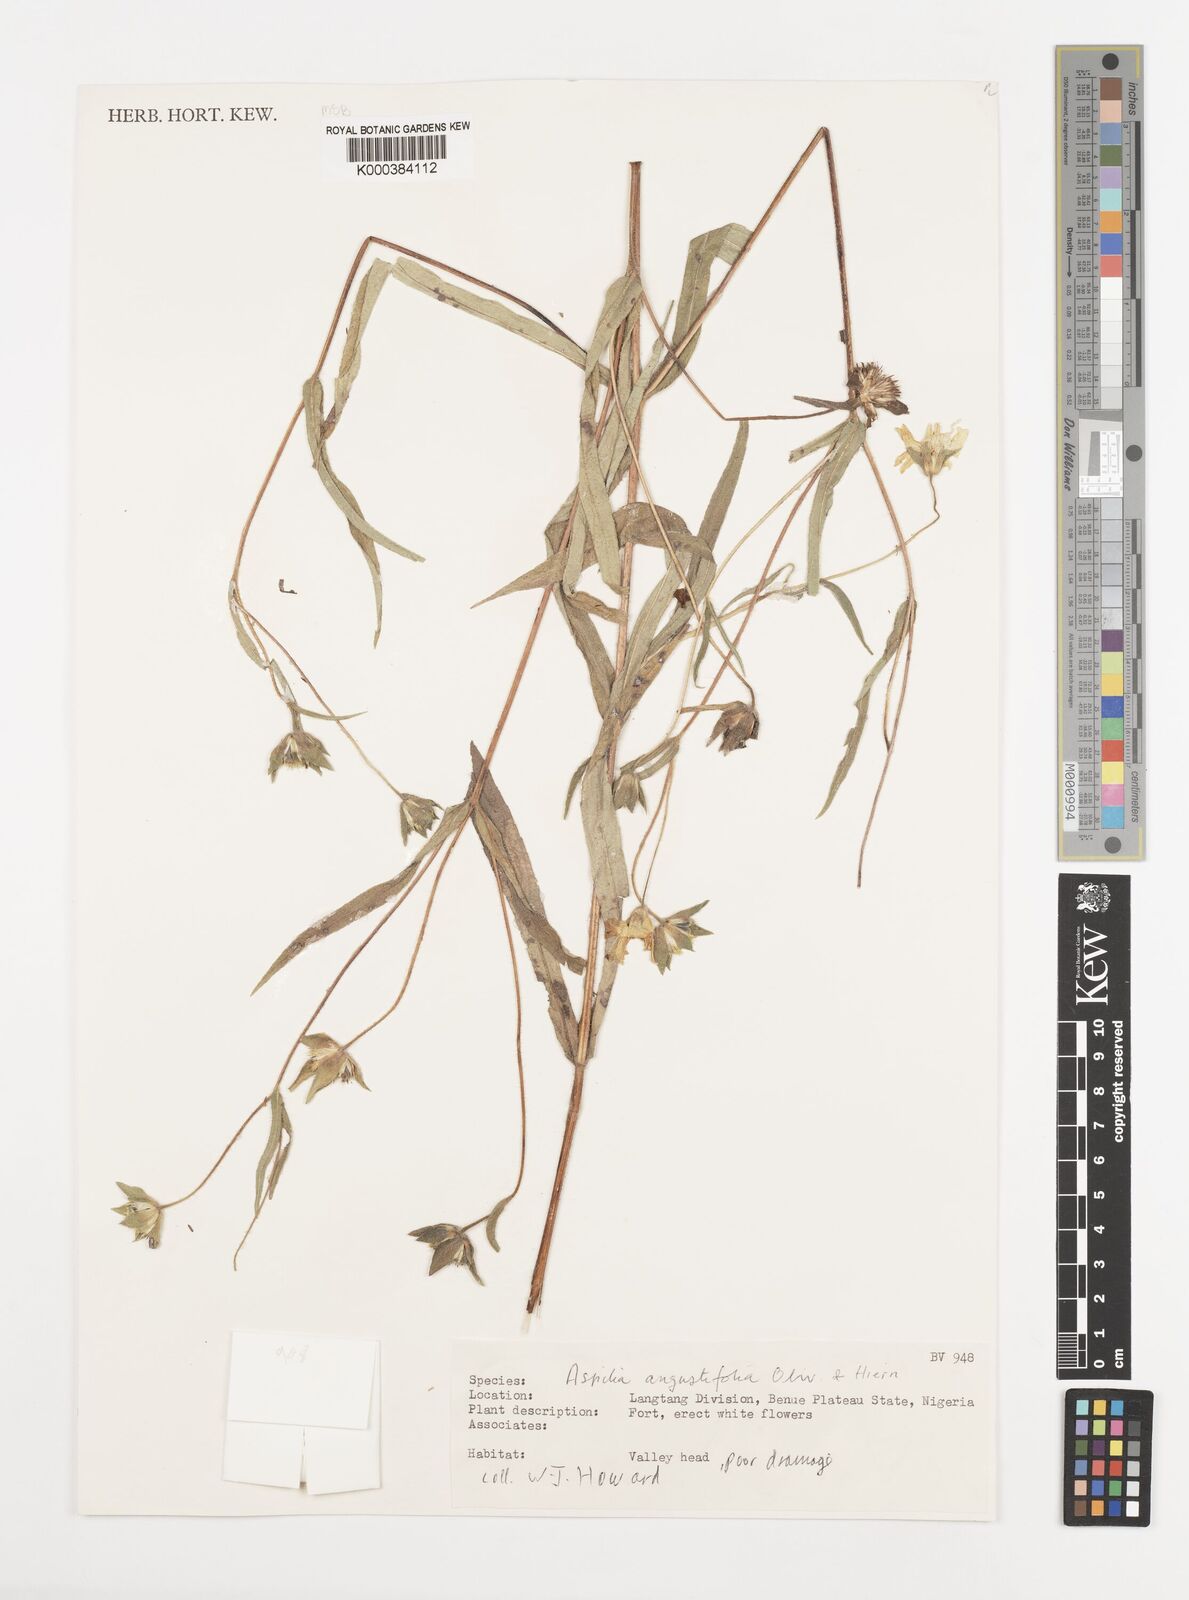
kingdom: Plantae
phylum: Tracheophyta
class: Magnoliopsida
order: Asterales
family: Asteraceae
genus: Aspilia
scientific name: Aspilia angustifolia
